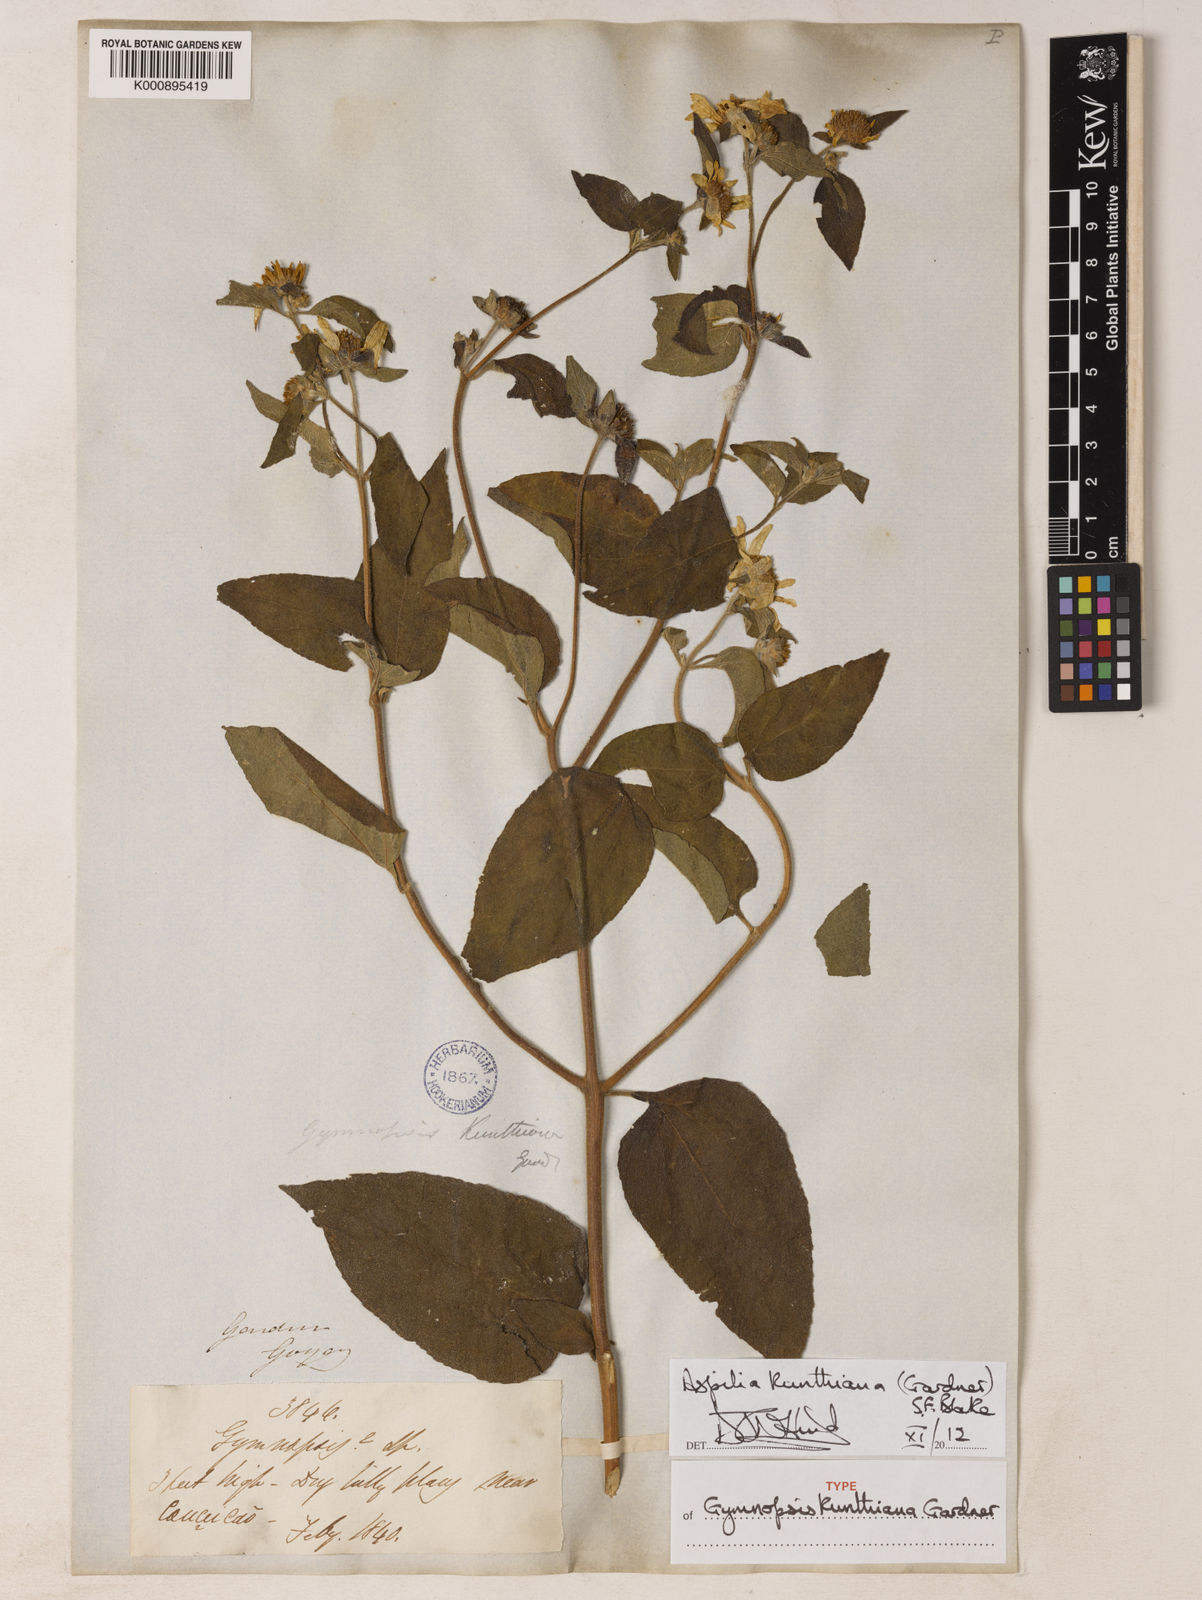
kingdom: Plantae
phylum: Tracheophyta
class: Magnoliopsida
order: Asterales
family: Asteraceae
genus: Aspilia
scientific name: Aspilia kunthiana
